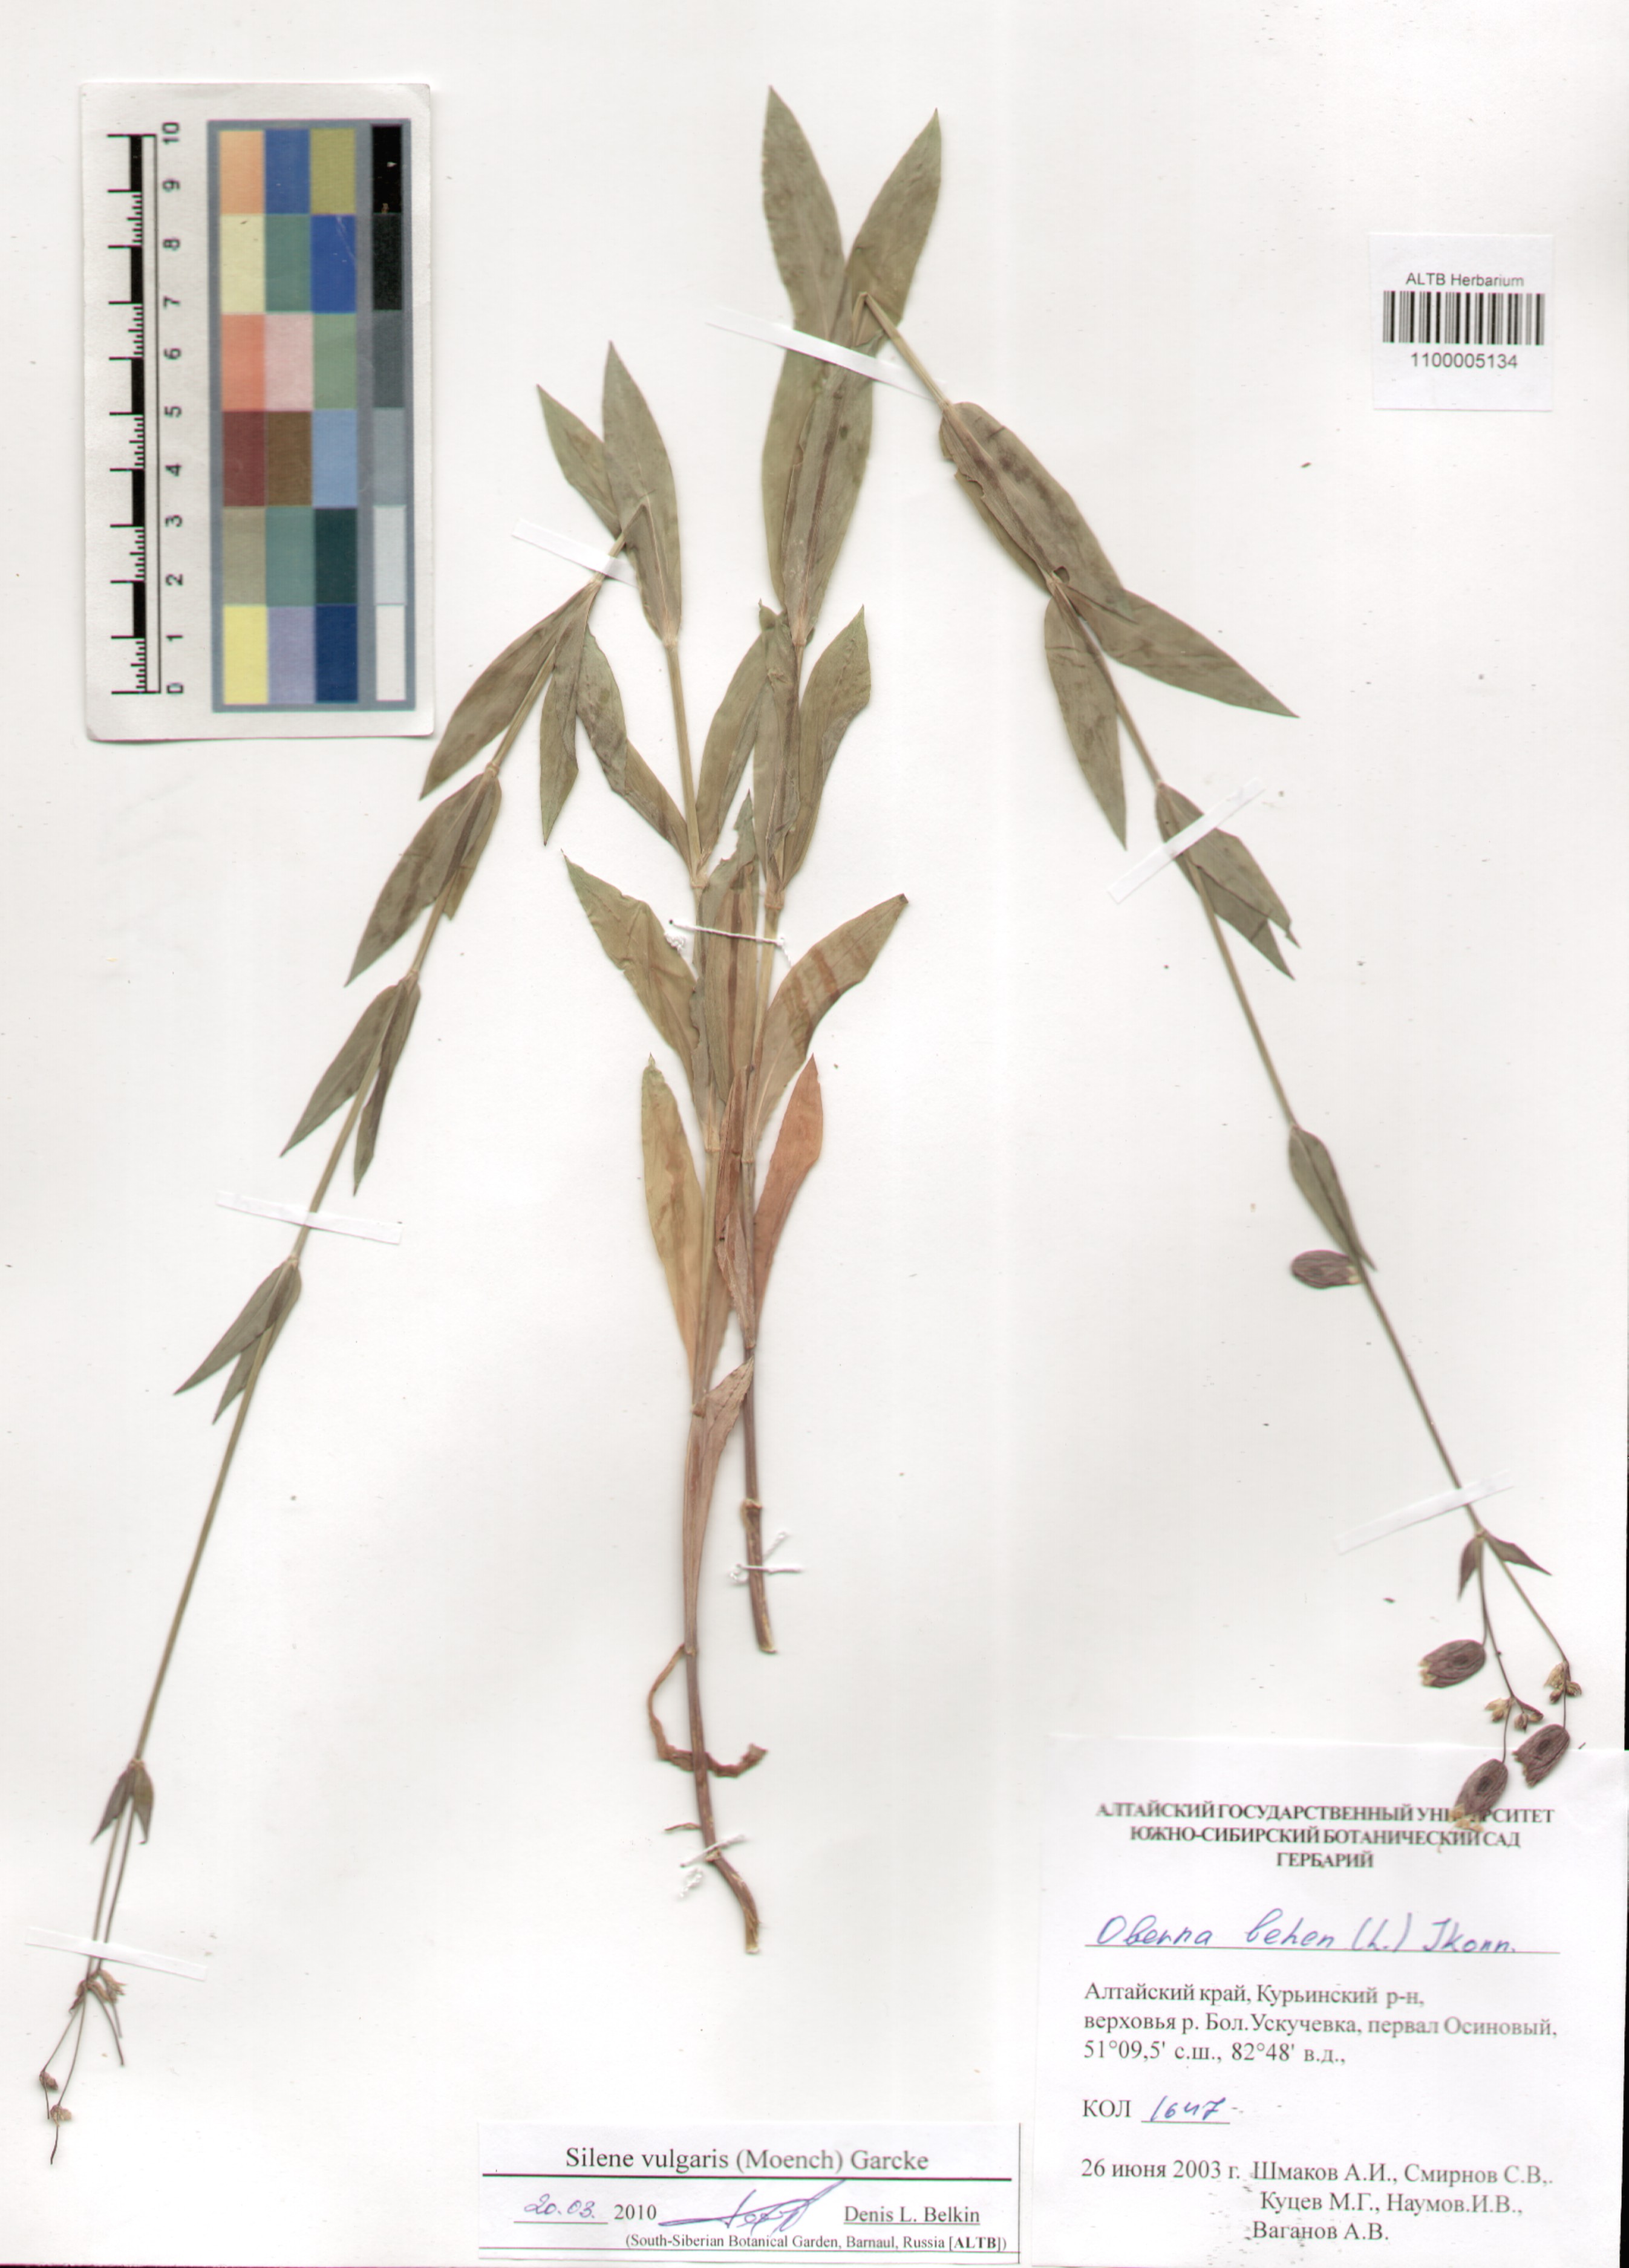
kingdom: Plantae
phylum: Tracheophyta
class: Magnoliopsida
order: Caryophyllales
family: Caryophyllaceae
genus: Silene
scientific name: Silene vulgaris
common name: Bladder campion
